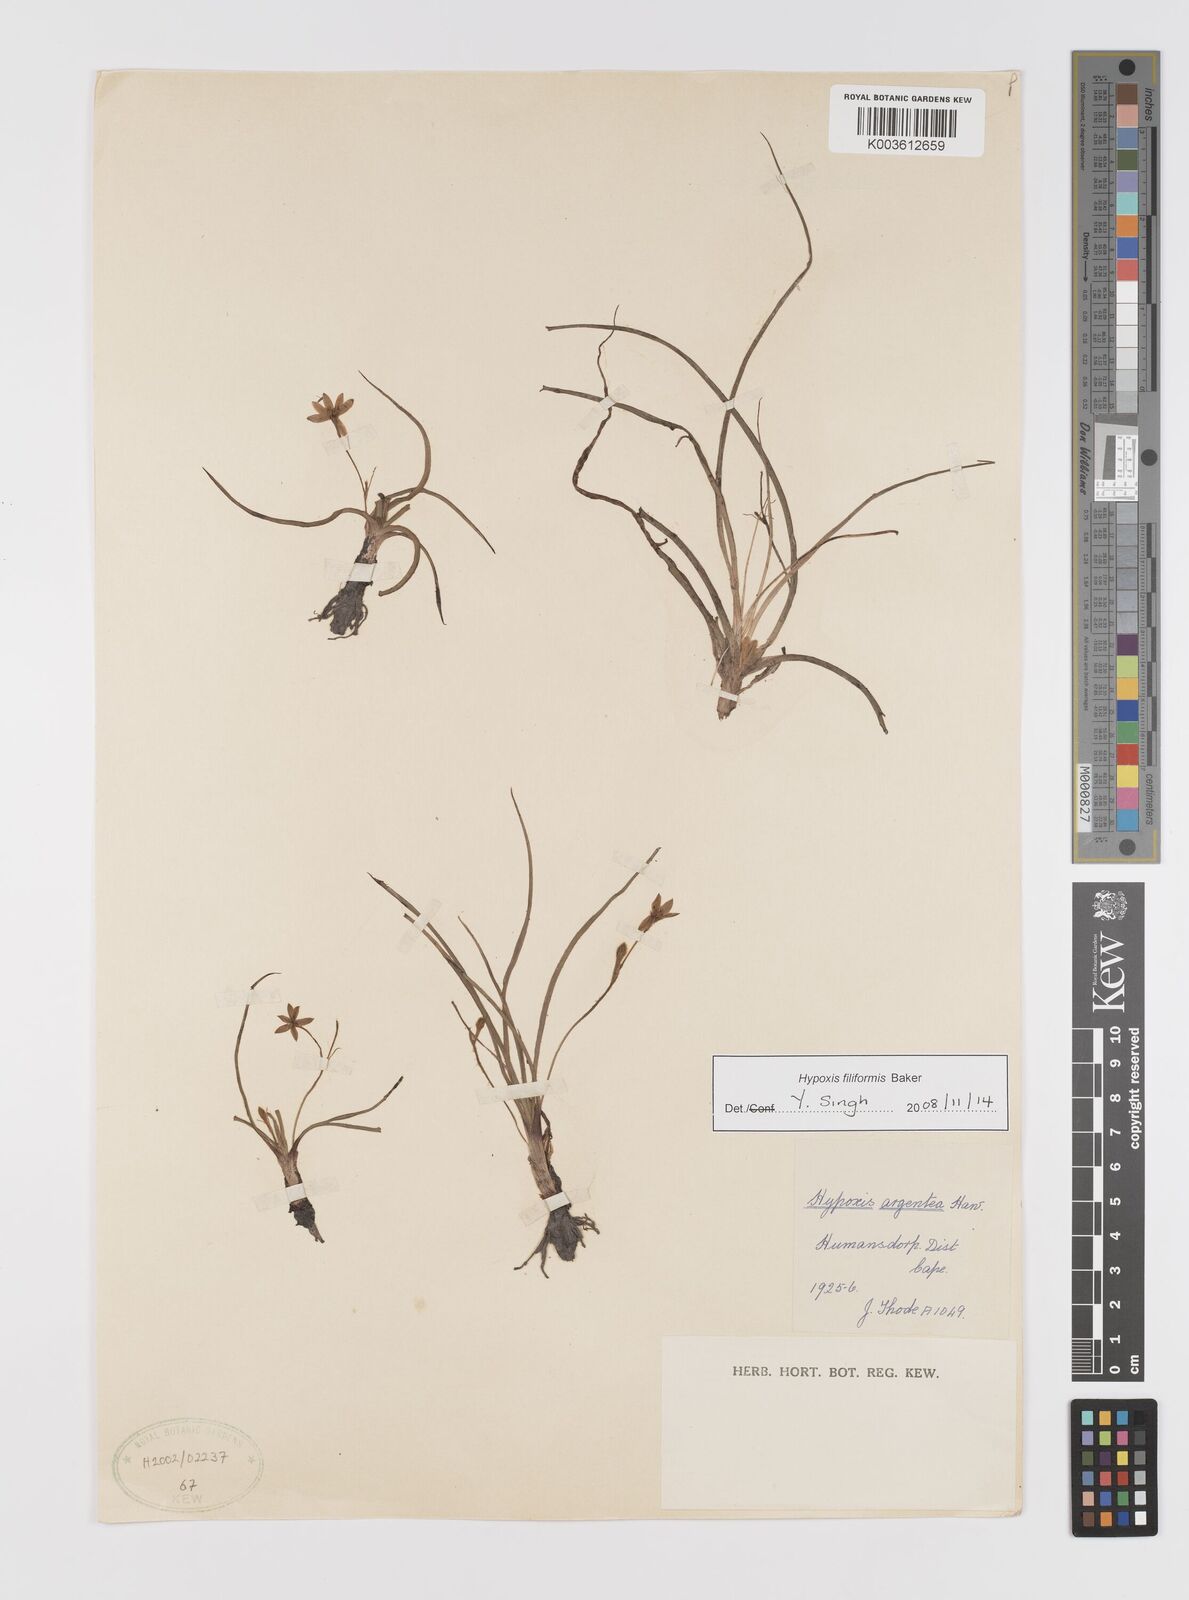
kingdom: Plantae
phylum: Tracheophyta
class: Liliopsida
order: Asparagales
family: Hypoxidaceae
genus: Hypoxis
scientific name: Hypoxis filiformis
